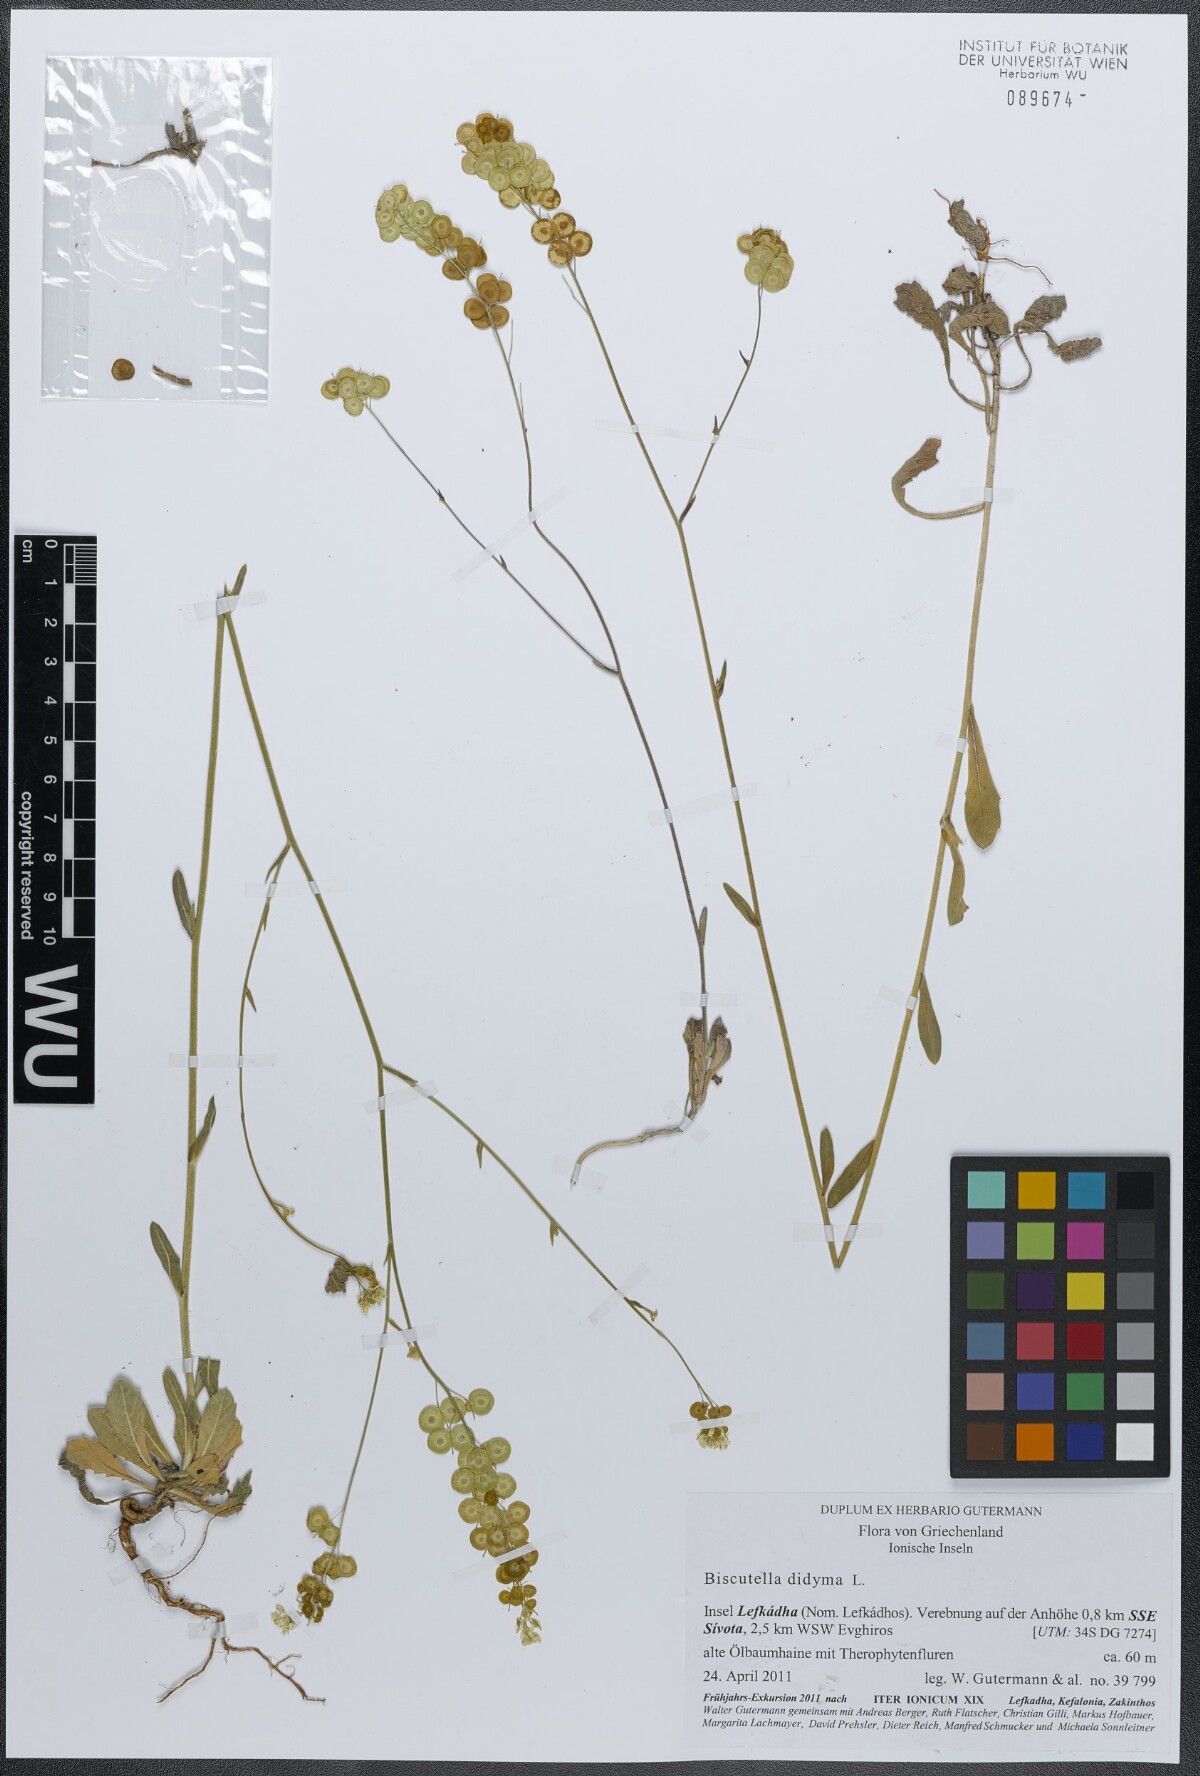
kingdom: Plantae
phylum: Tracheophyta
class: Magnoliopsida
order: Brassicales
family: Brassicaceae
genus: Biscutella
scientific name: Biscutella didyma
